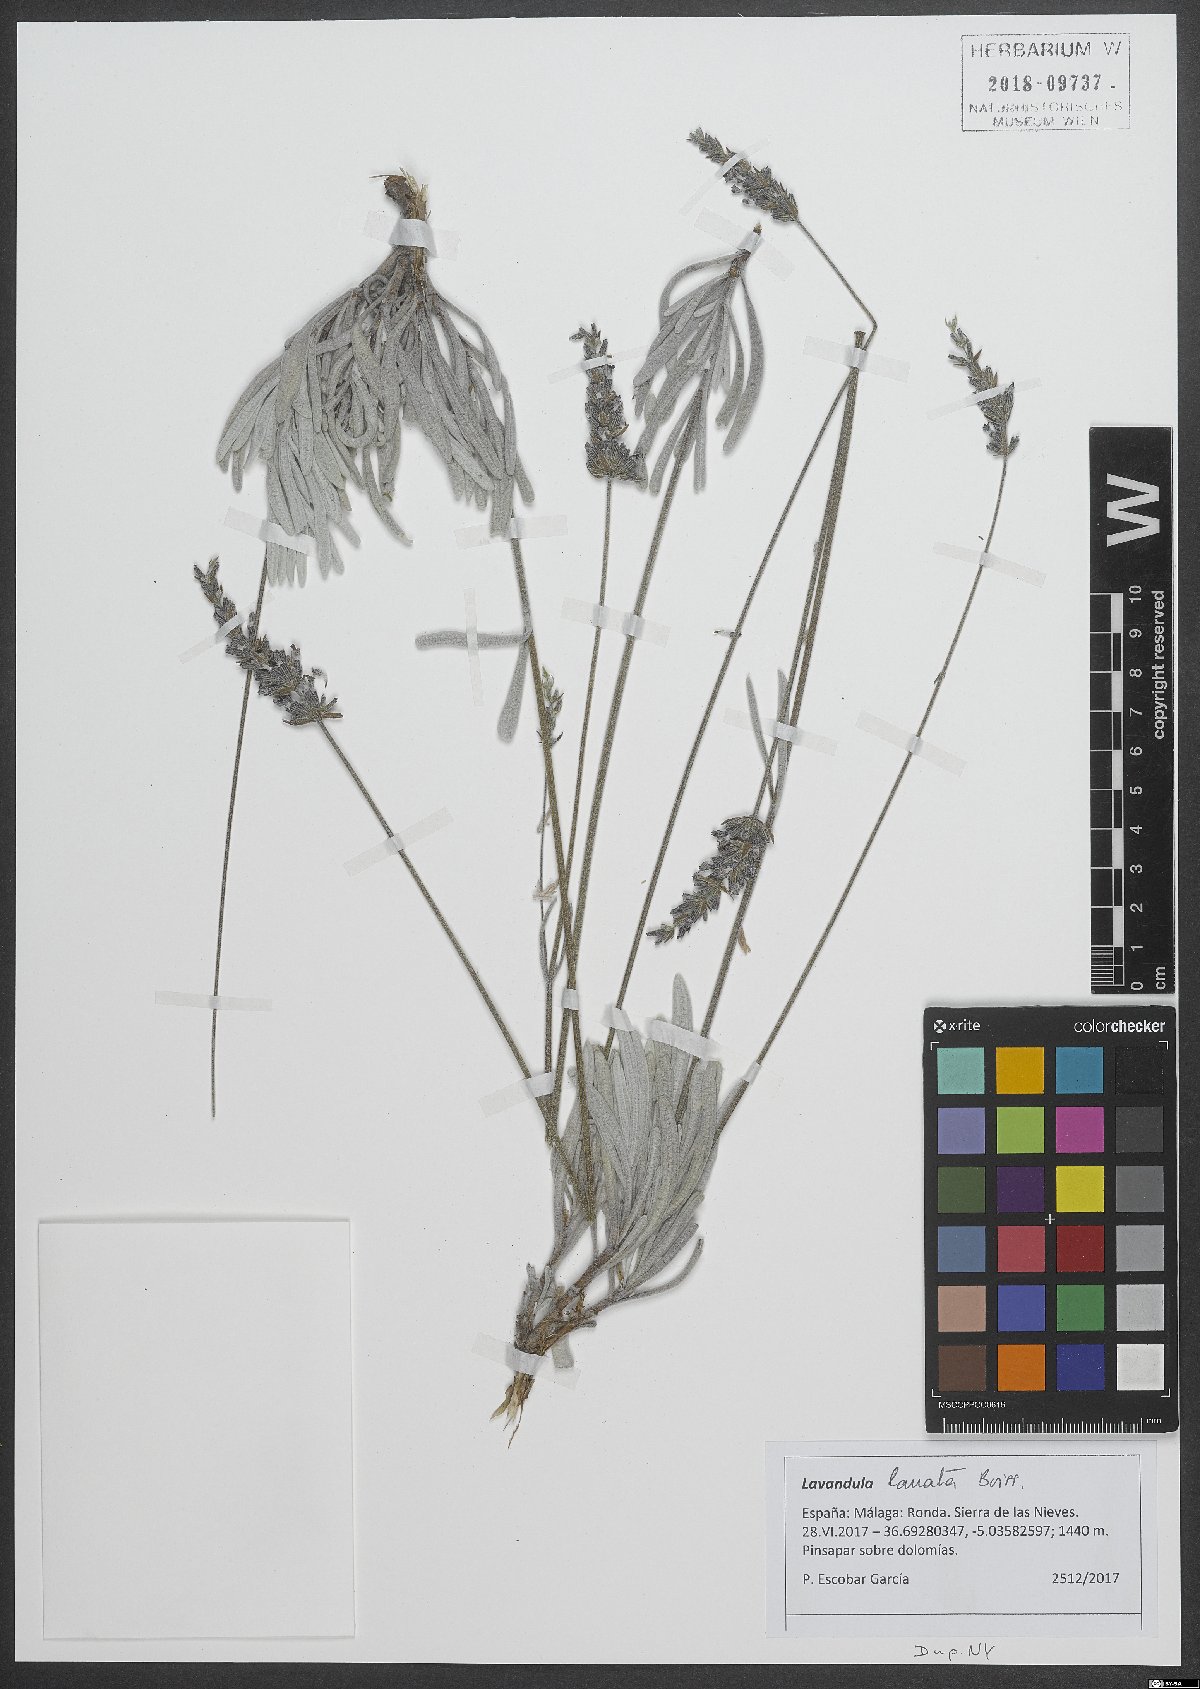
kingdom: Plantae
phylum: Tracheophyta
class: Magnoliopsida
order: Lamiales
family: Lamiaceae
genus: Lavandula
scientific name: Lavandula lanata
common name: Woolly lavender
